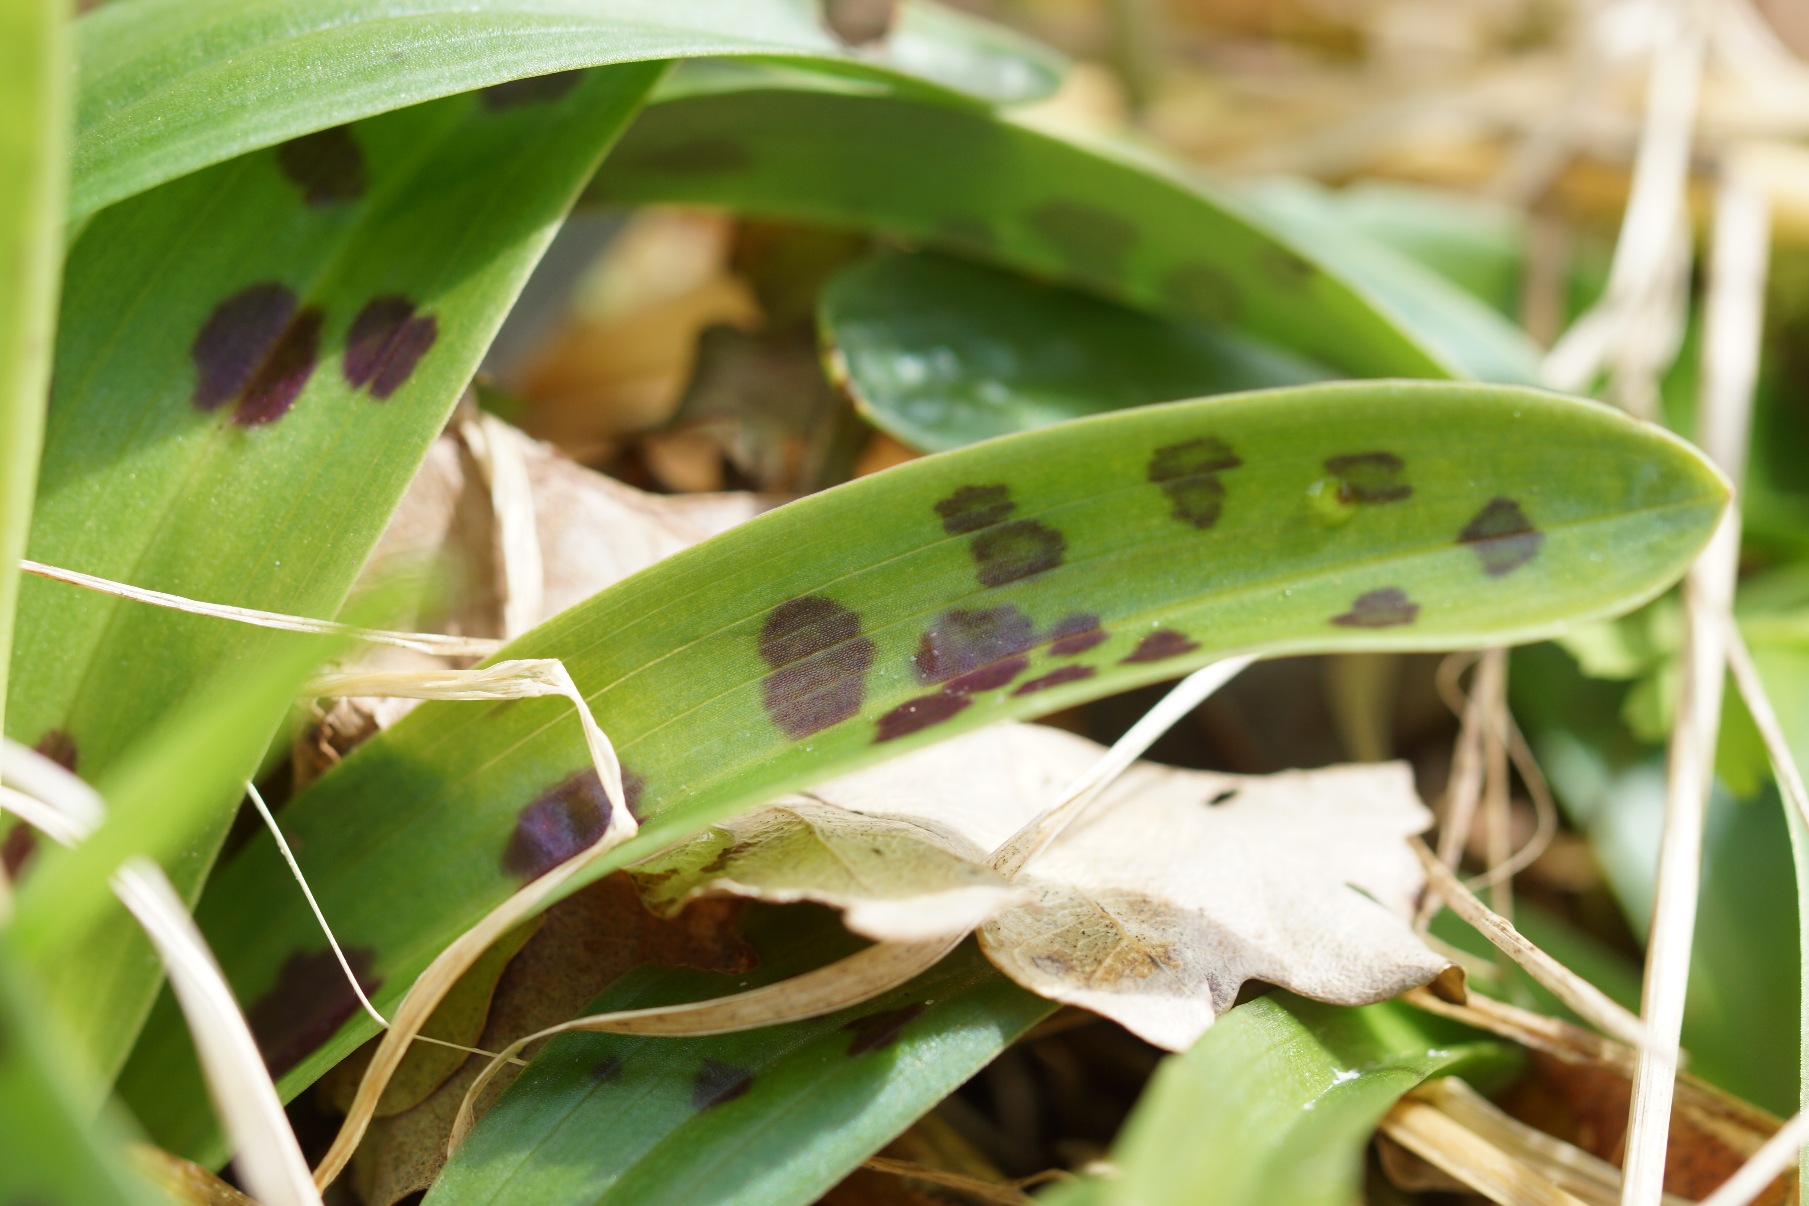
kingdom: Plantae
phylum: Tracheophyta
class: Liliopsida
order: Asparagales
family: Orchidaceae
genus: Orchis
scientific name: Orchis mascula
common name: Tyndakset gøgeurt
